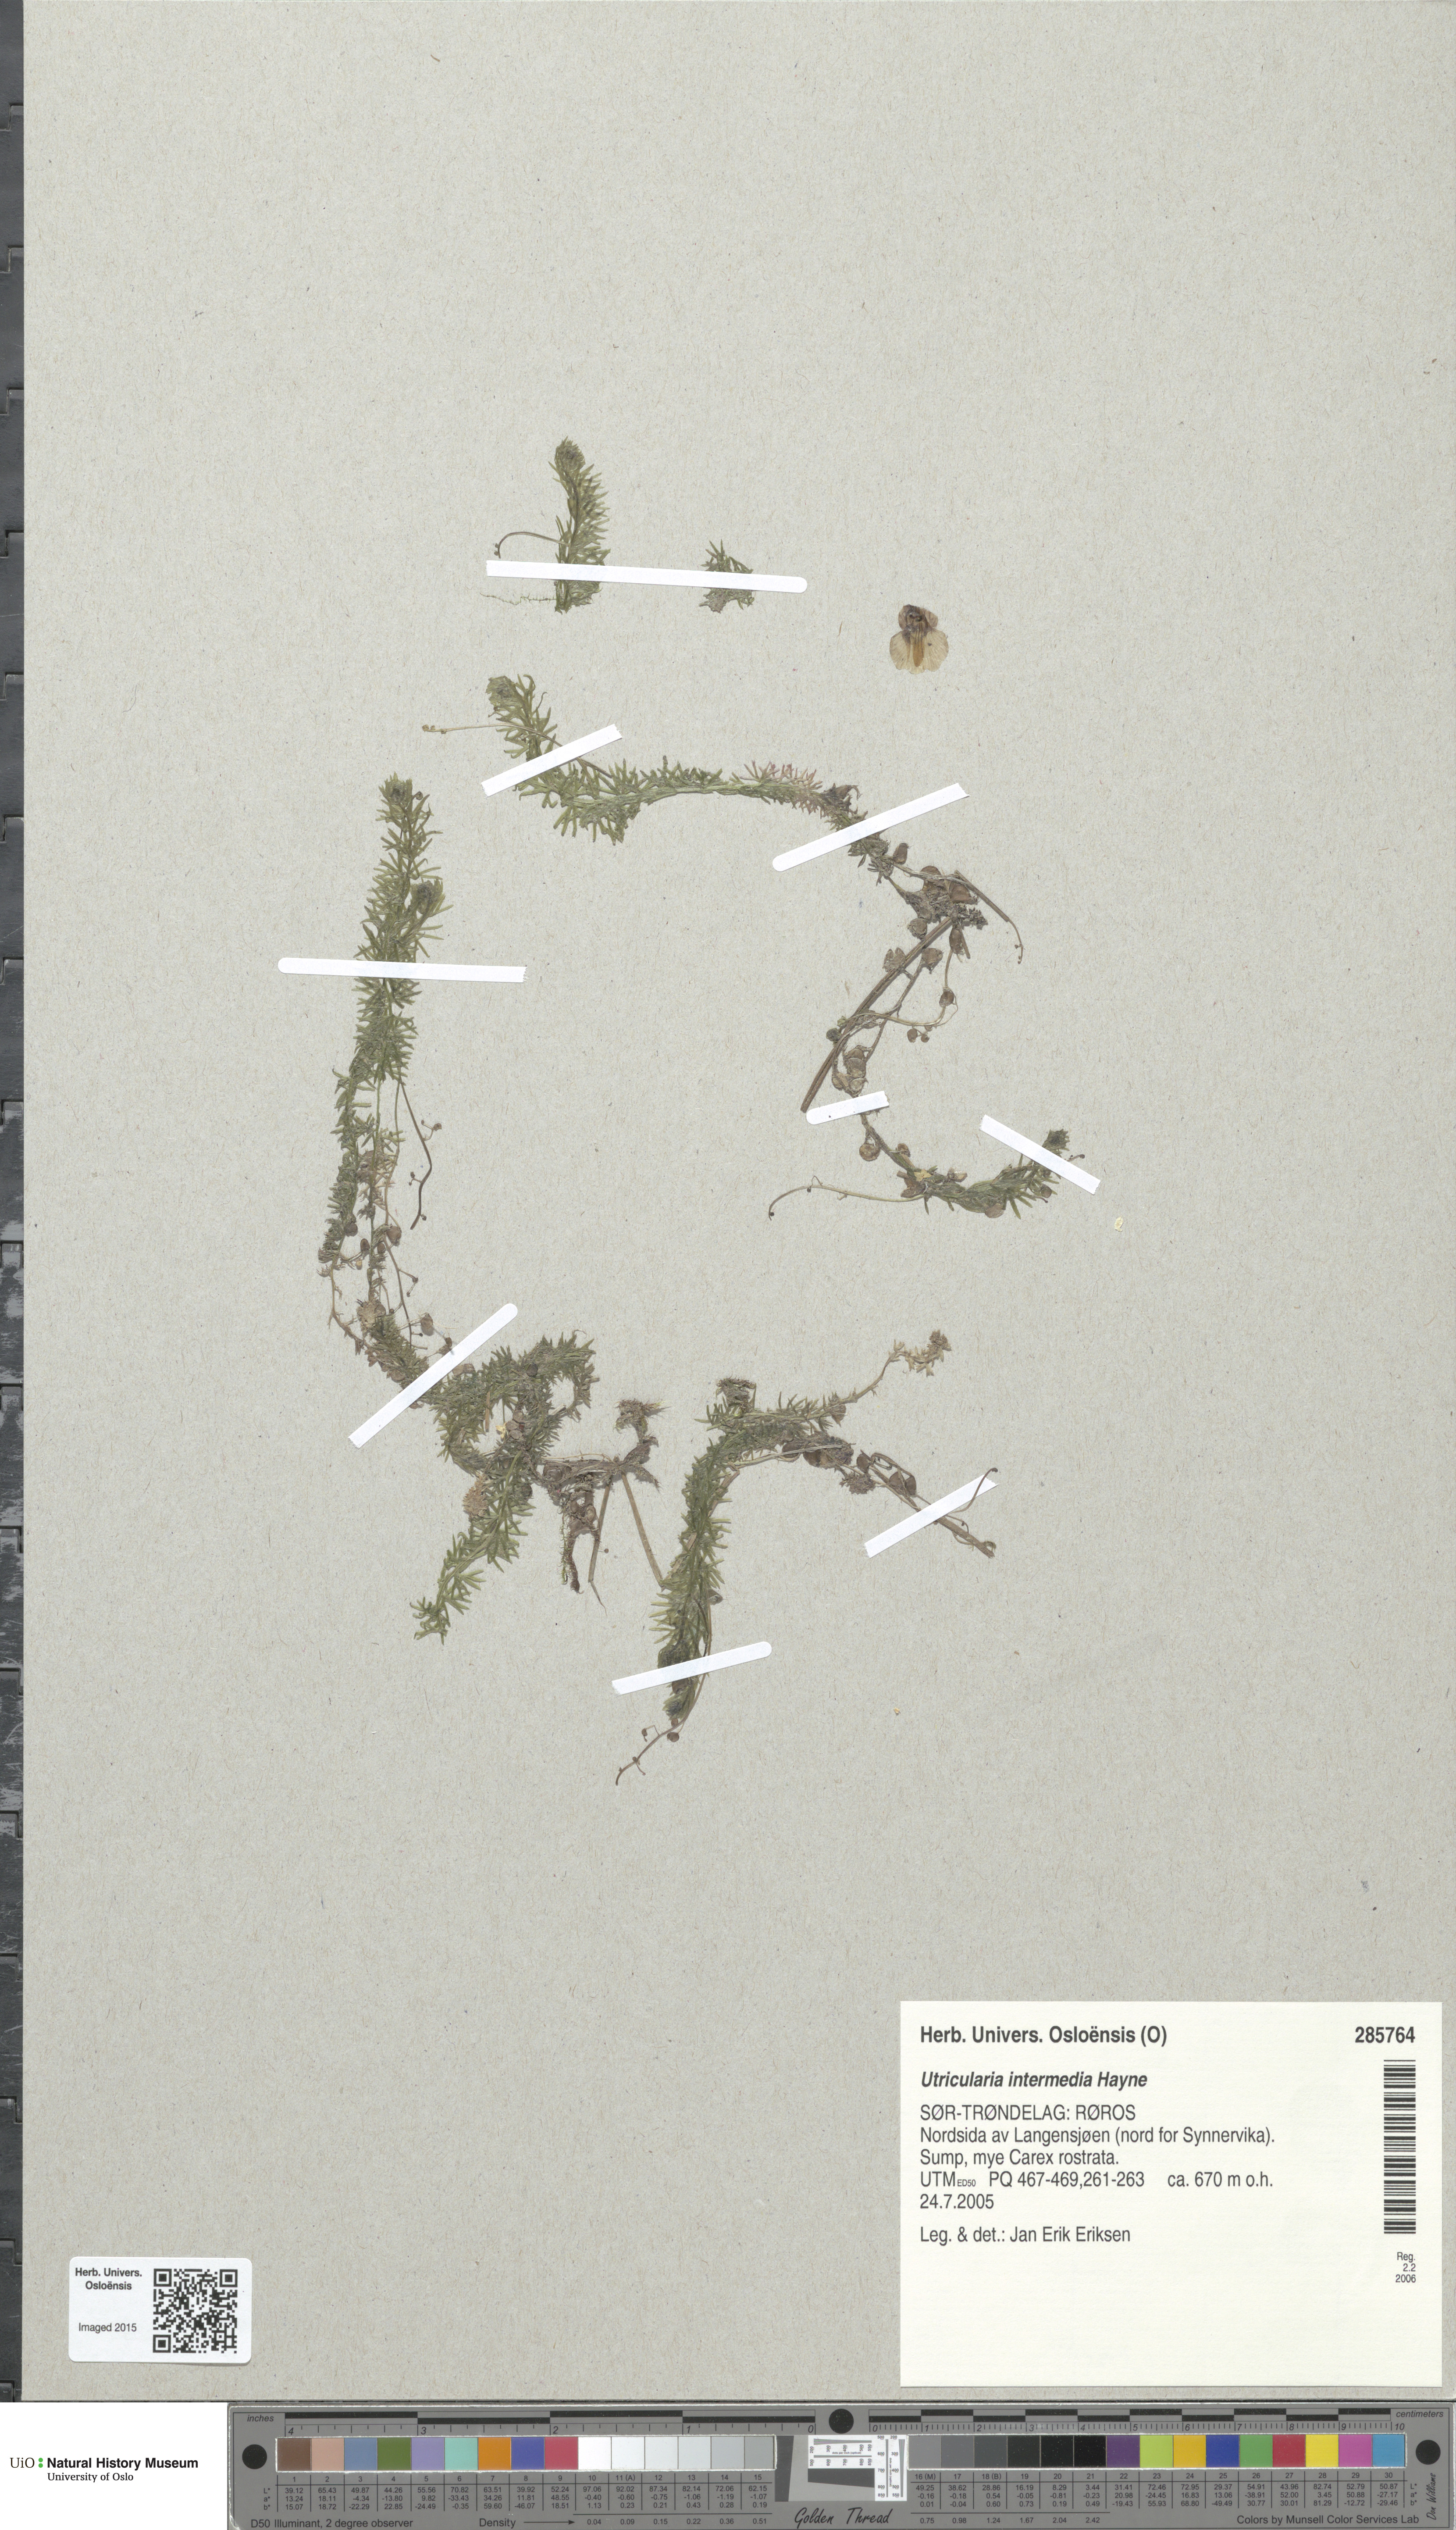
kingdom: Plantae
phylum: Tracheophyta
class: Magnoliopsida
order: Lamiales
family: Lentibulariaceae
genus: Utricularia
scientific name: Utricularia intermedia
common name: Intermediate bladderwort
